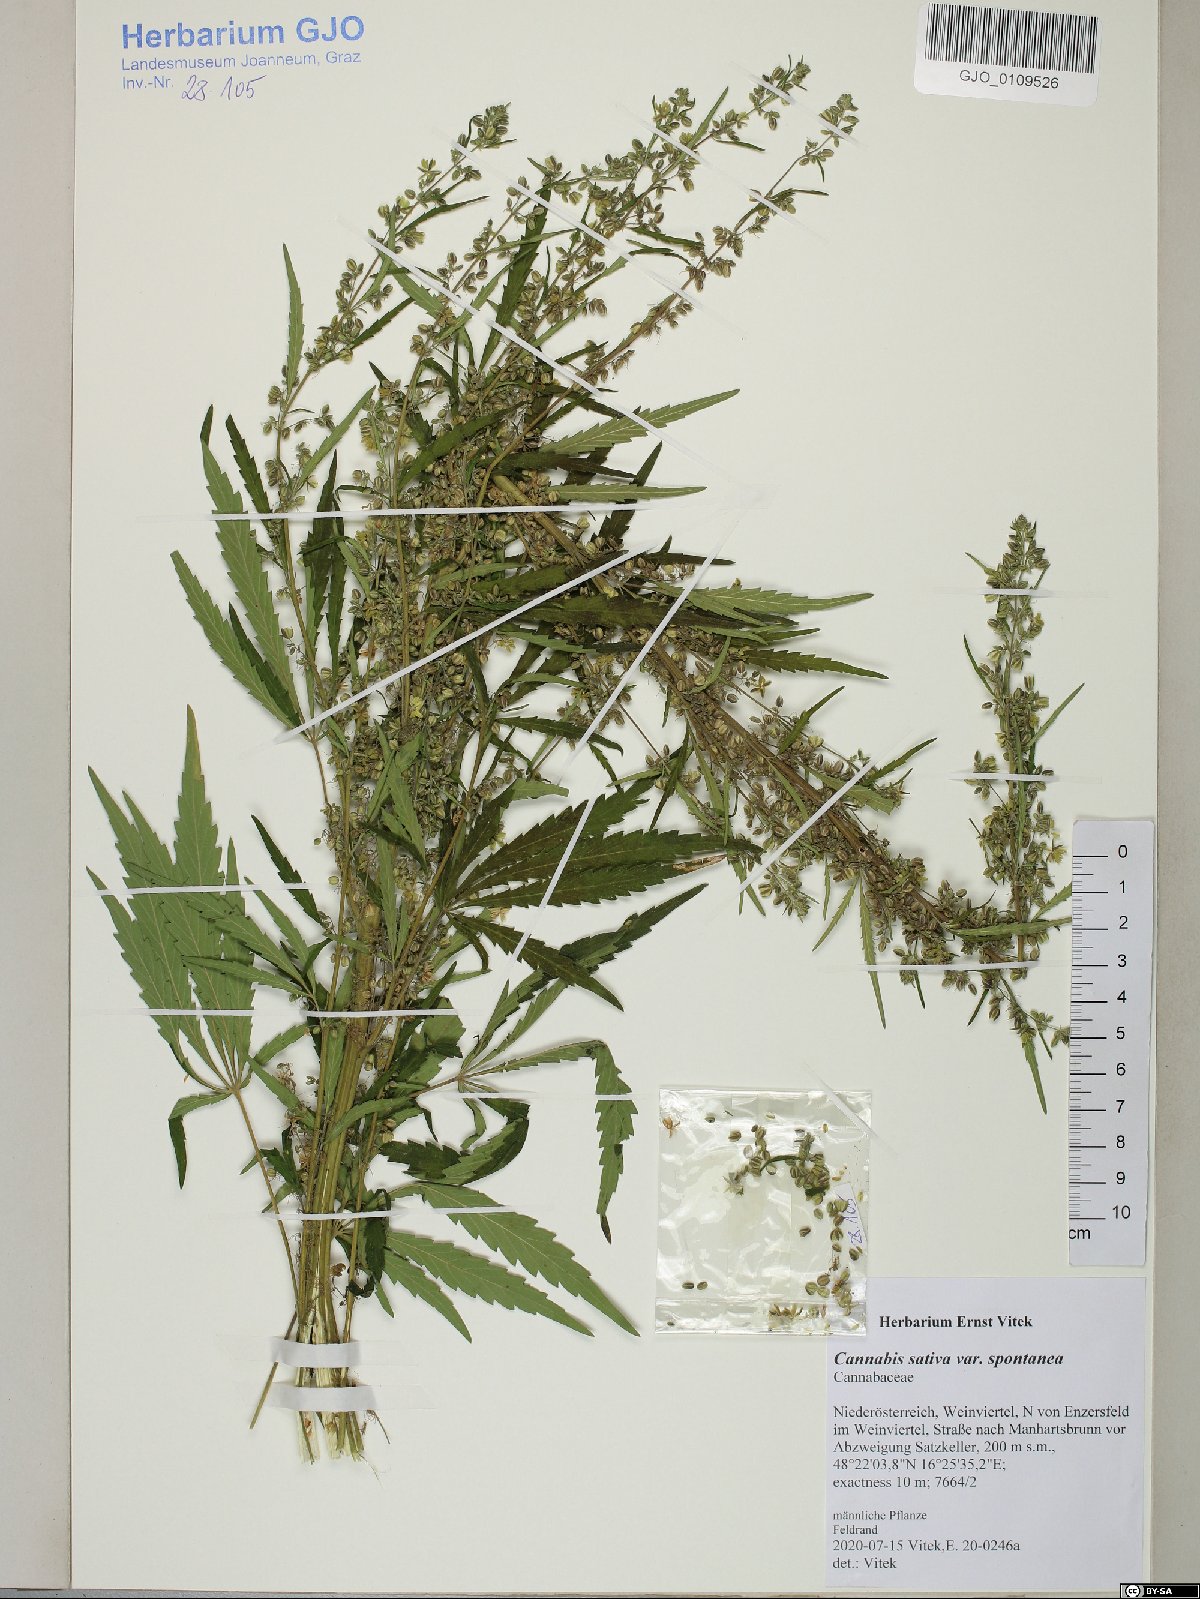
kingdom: Plantae
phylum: Tracheophyta
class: Magnoliopsida
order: Rosales
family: Cannabaceae
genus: Cannabis
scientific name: Cannabis sativa
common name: Hemp
